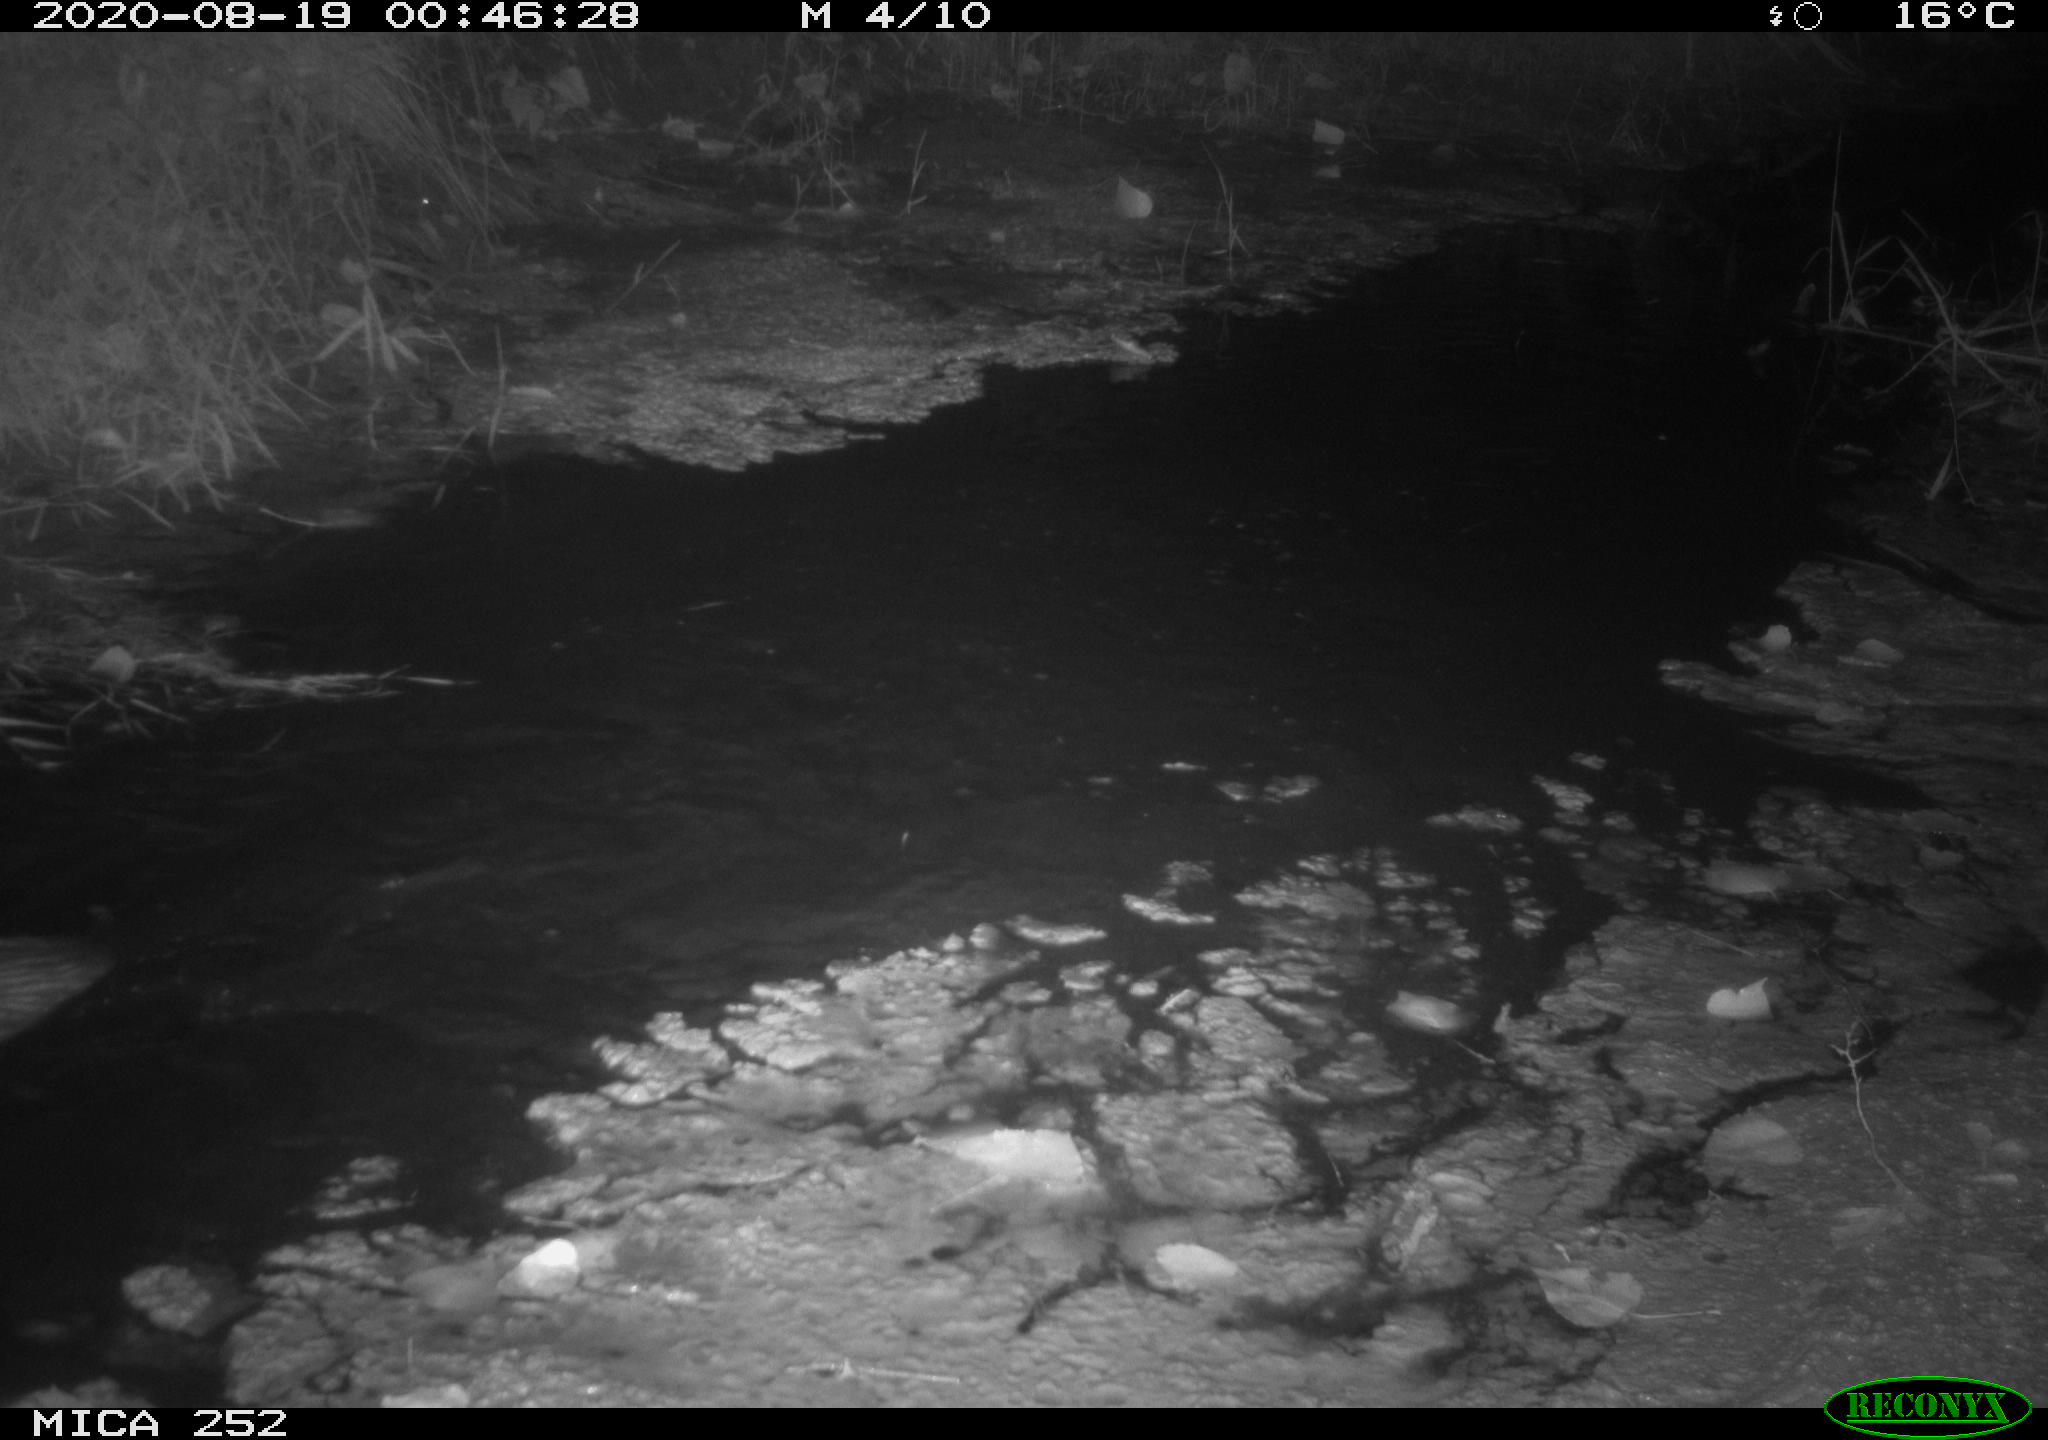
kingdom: Animalia
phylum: Chordata
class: Mammalia
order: Rodentia
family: Castoridae
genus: Castor
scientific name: Castor fiber
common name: Eurasian beaver
